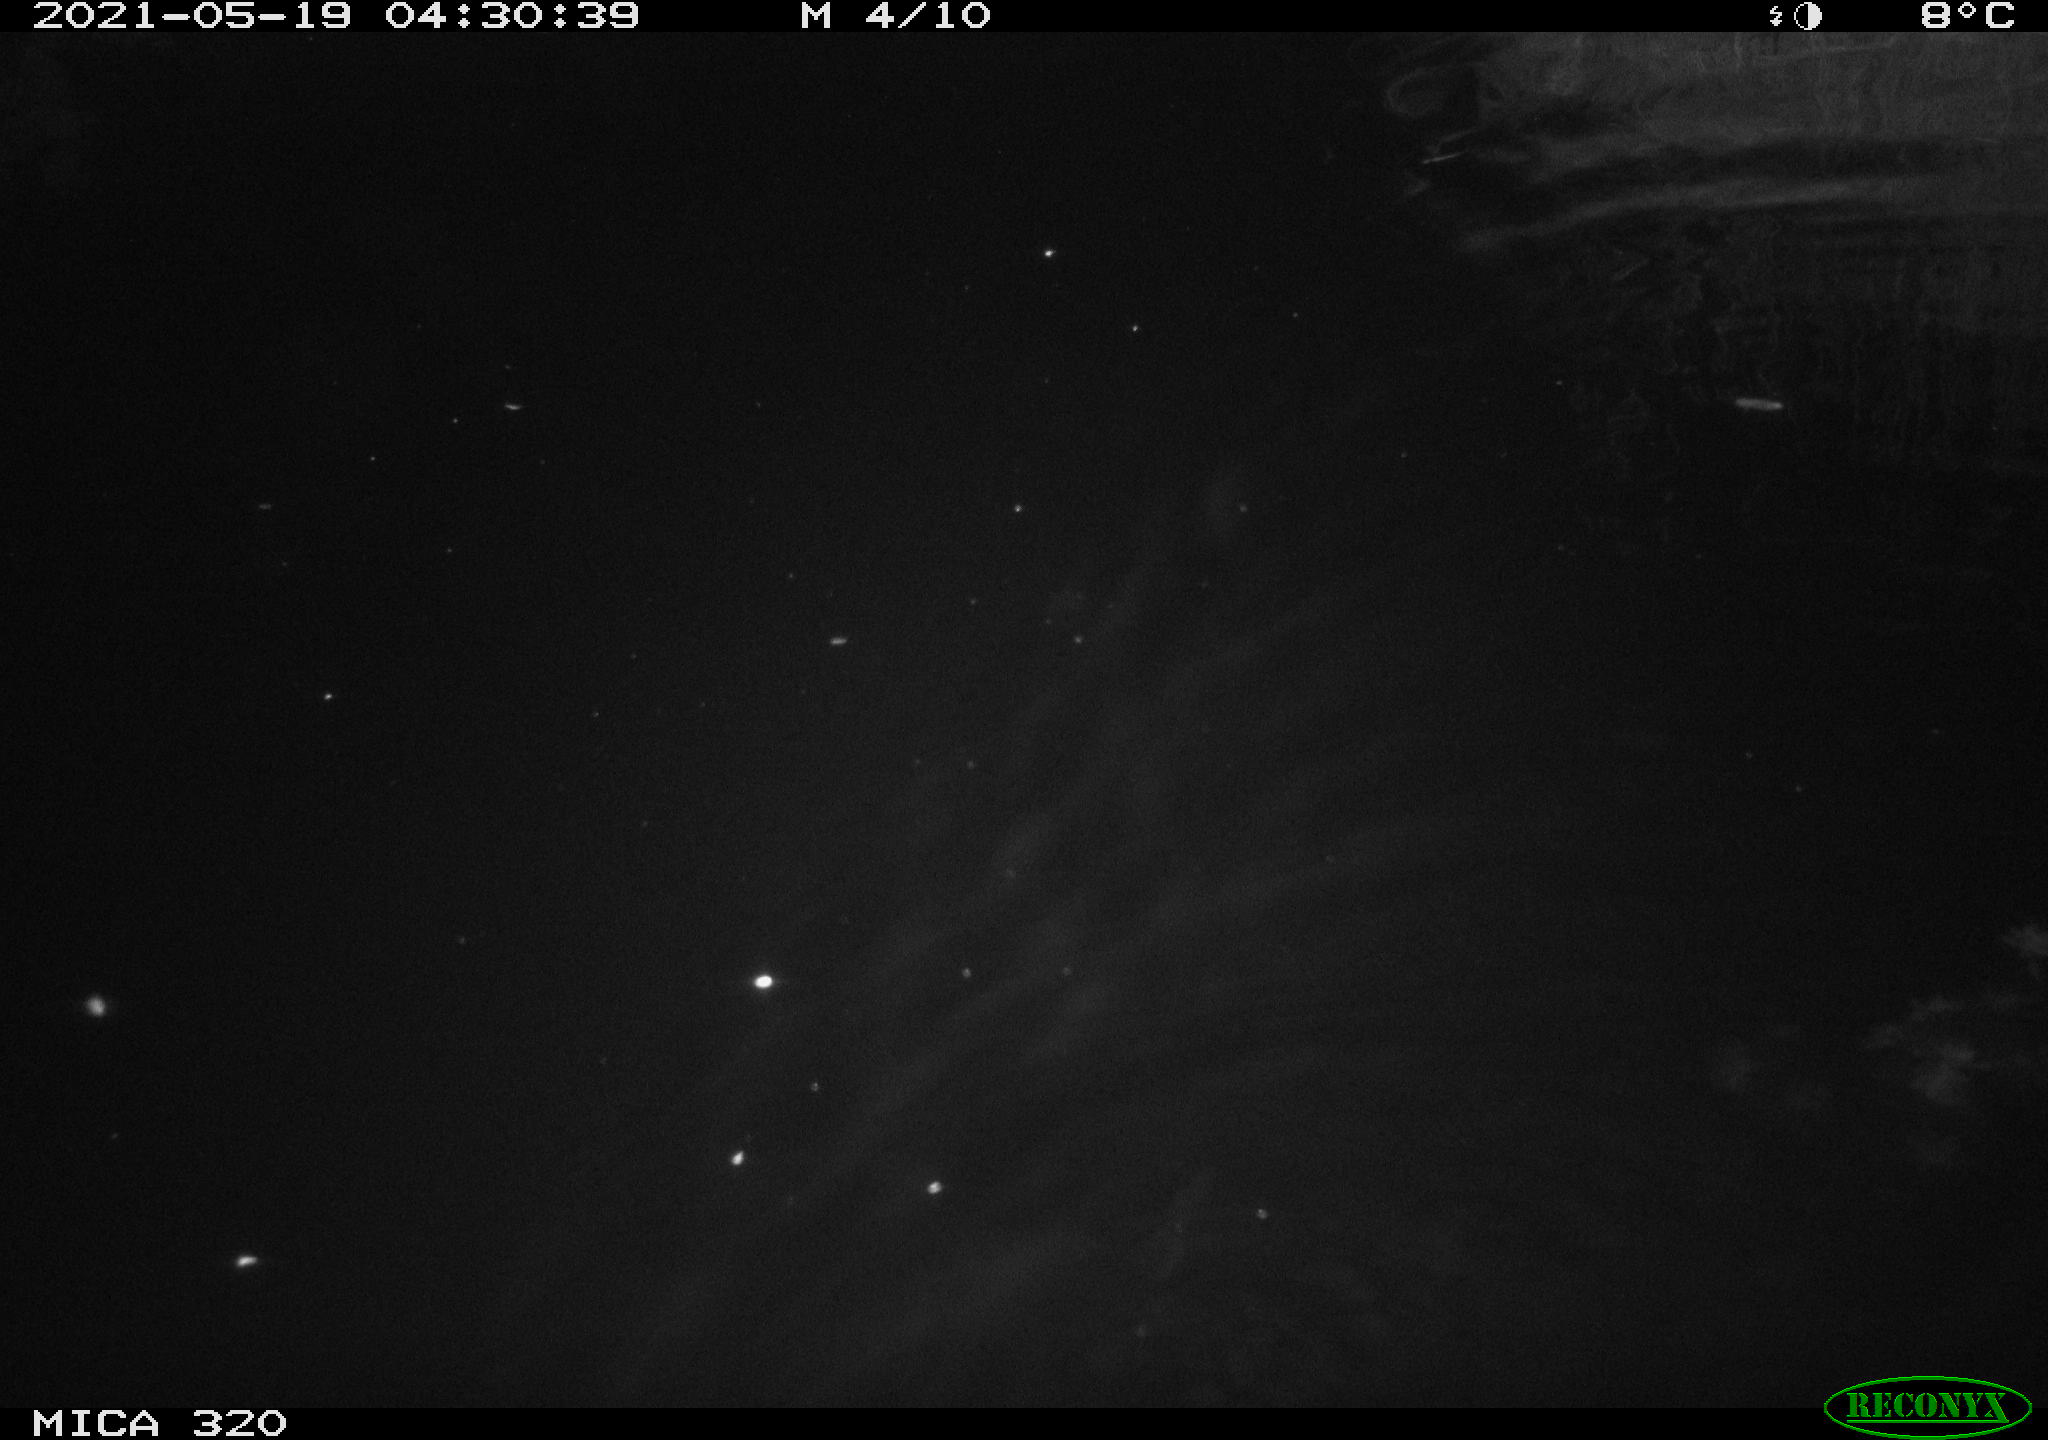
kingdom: Animalia
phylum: Chordata
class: Mammalia
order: Rodentia
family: Muridae
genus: Rattus
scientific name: Rattus norvegicus
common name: Brown rat
